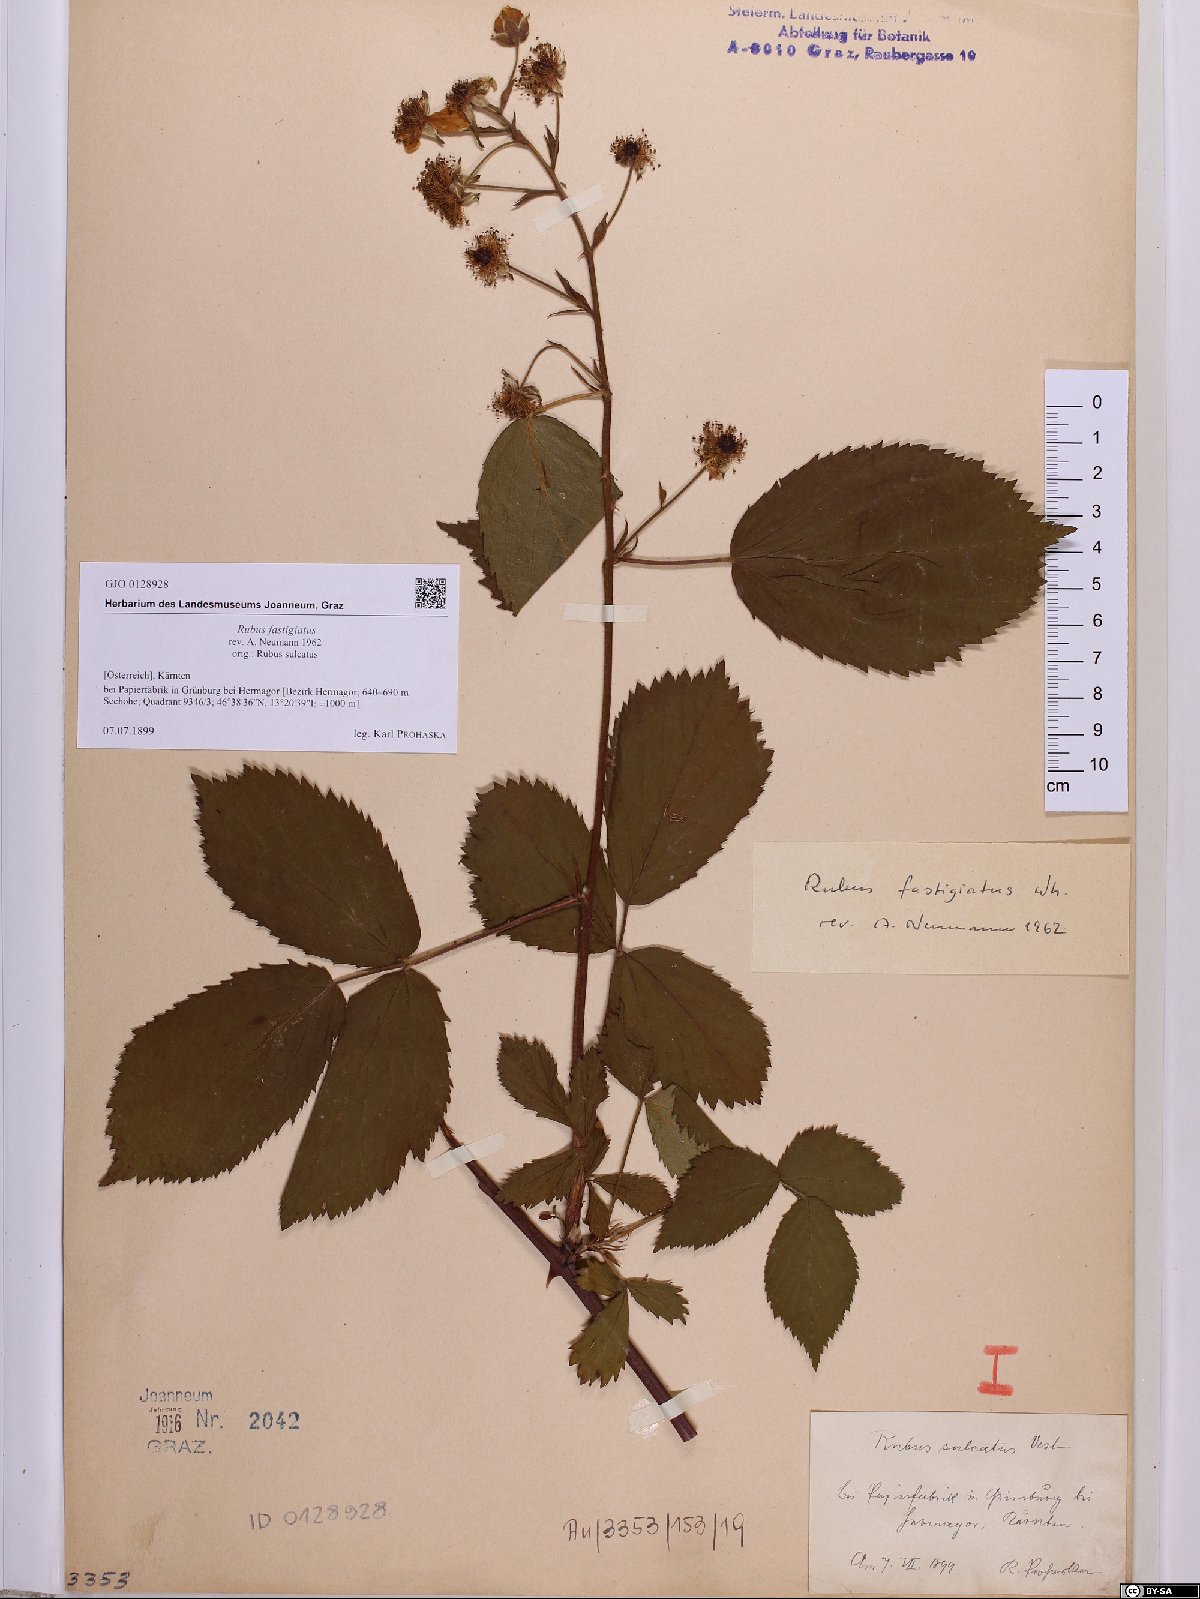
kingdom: Plantae
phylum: Tracheophyta
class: Magnoliopsida
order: Rosales
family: Rosaceae
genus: Rubus
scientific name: Rubus polonicus
